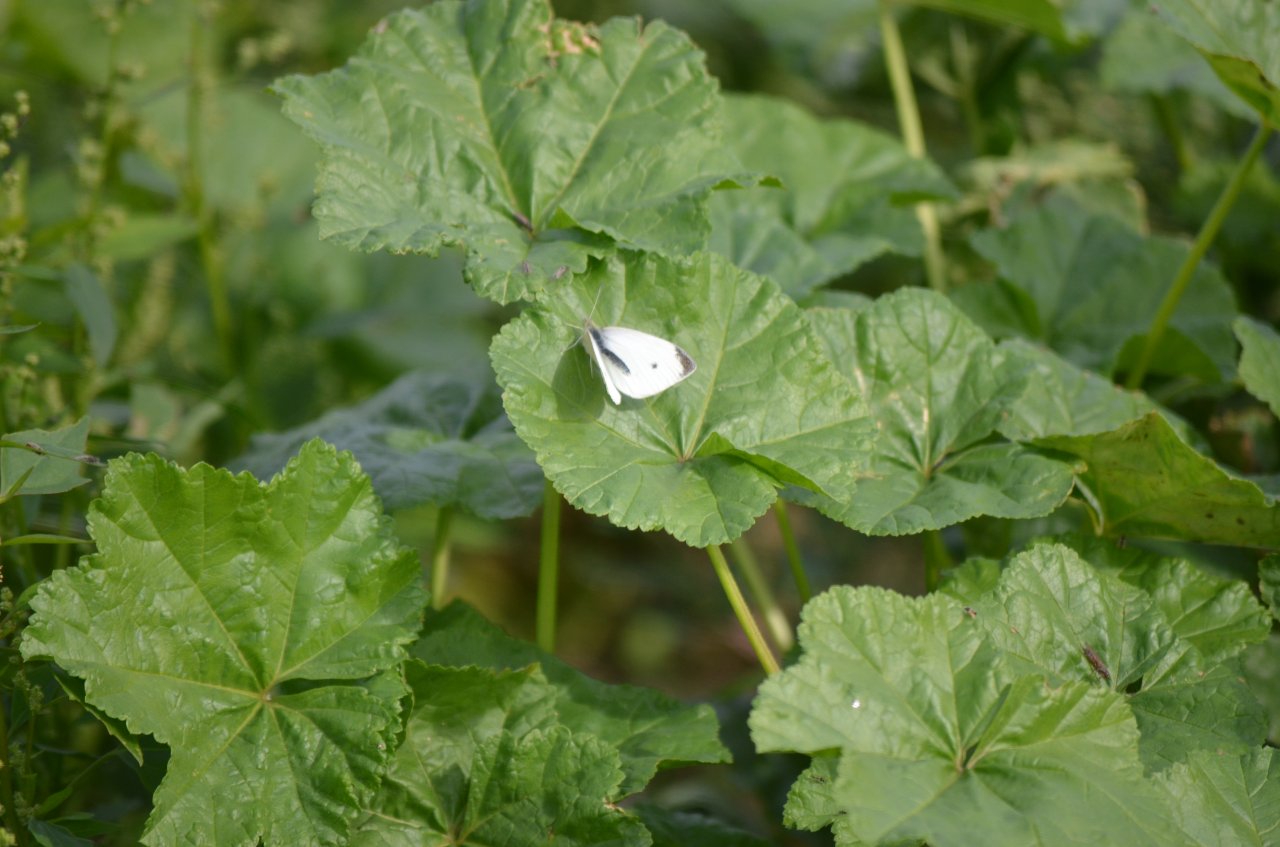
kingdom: Animalia
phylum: Arthropoda
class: Insecta
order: Lepidoptera
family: Pieridae
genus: Pieris
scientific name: Pieris rapae
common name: Cabbage White
